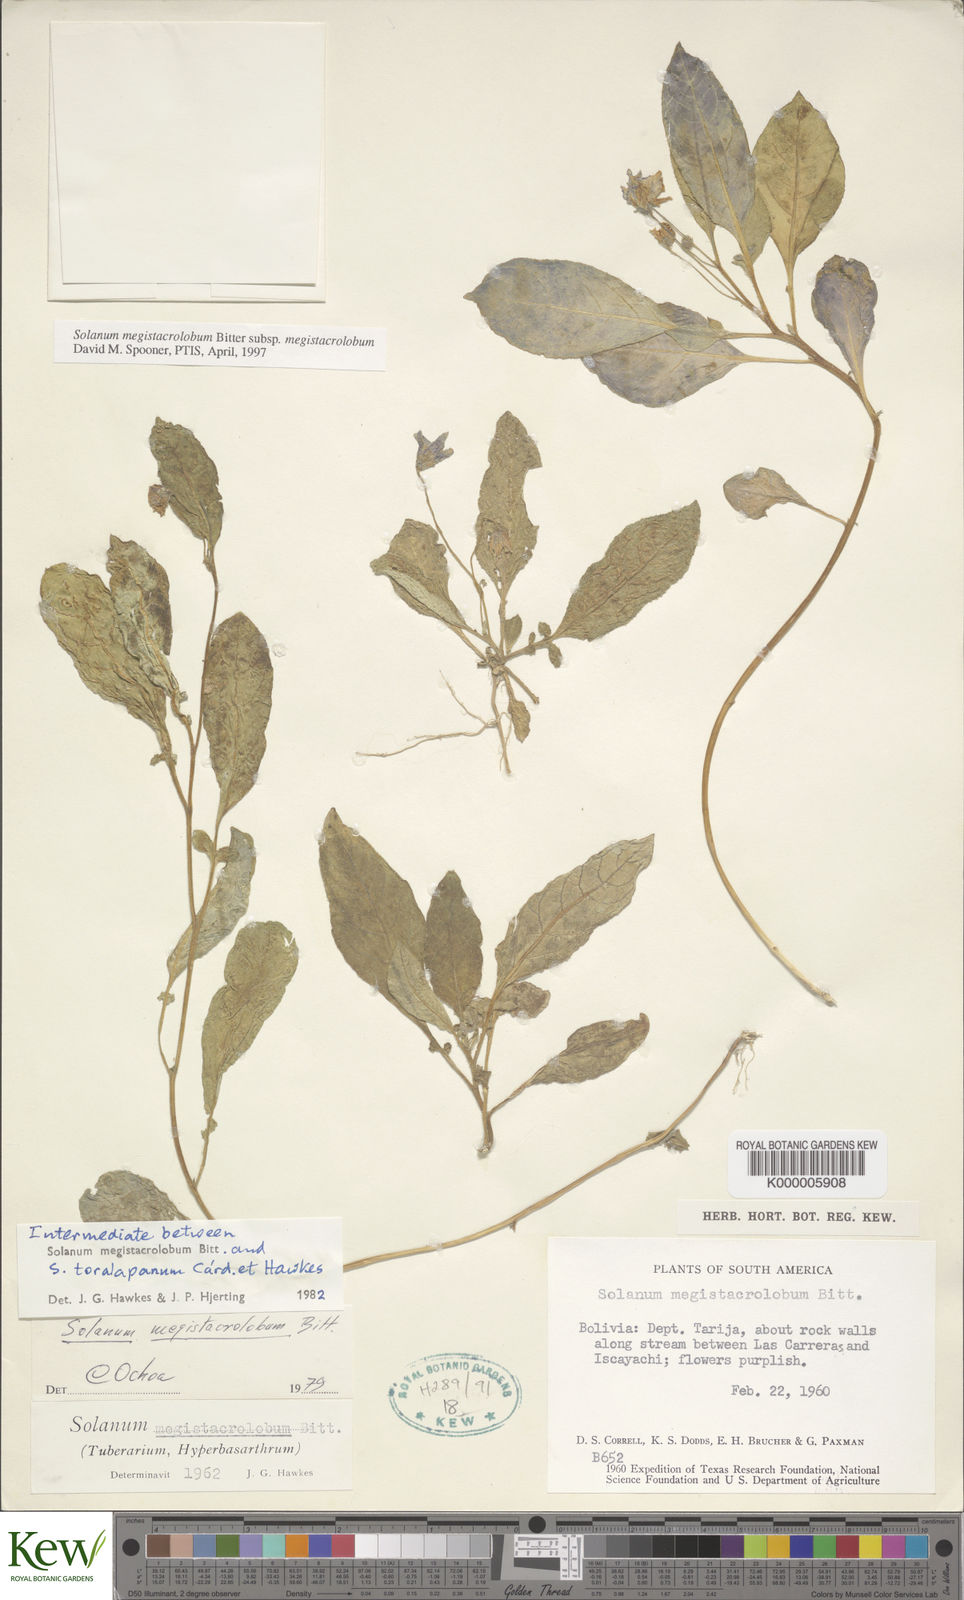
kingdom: Plantae
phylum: Tracheophyta
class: Magnoliopsida
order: Solanales
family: Solanaceae
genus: Solanum
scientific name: Solanum boliviense
